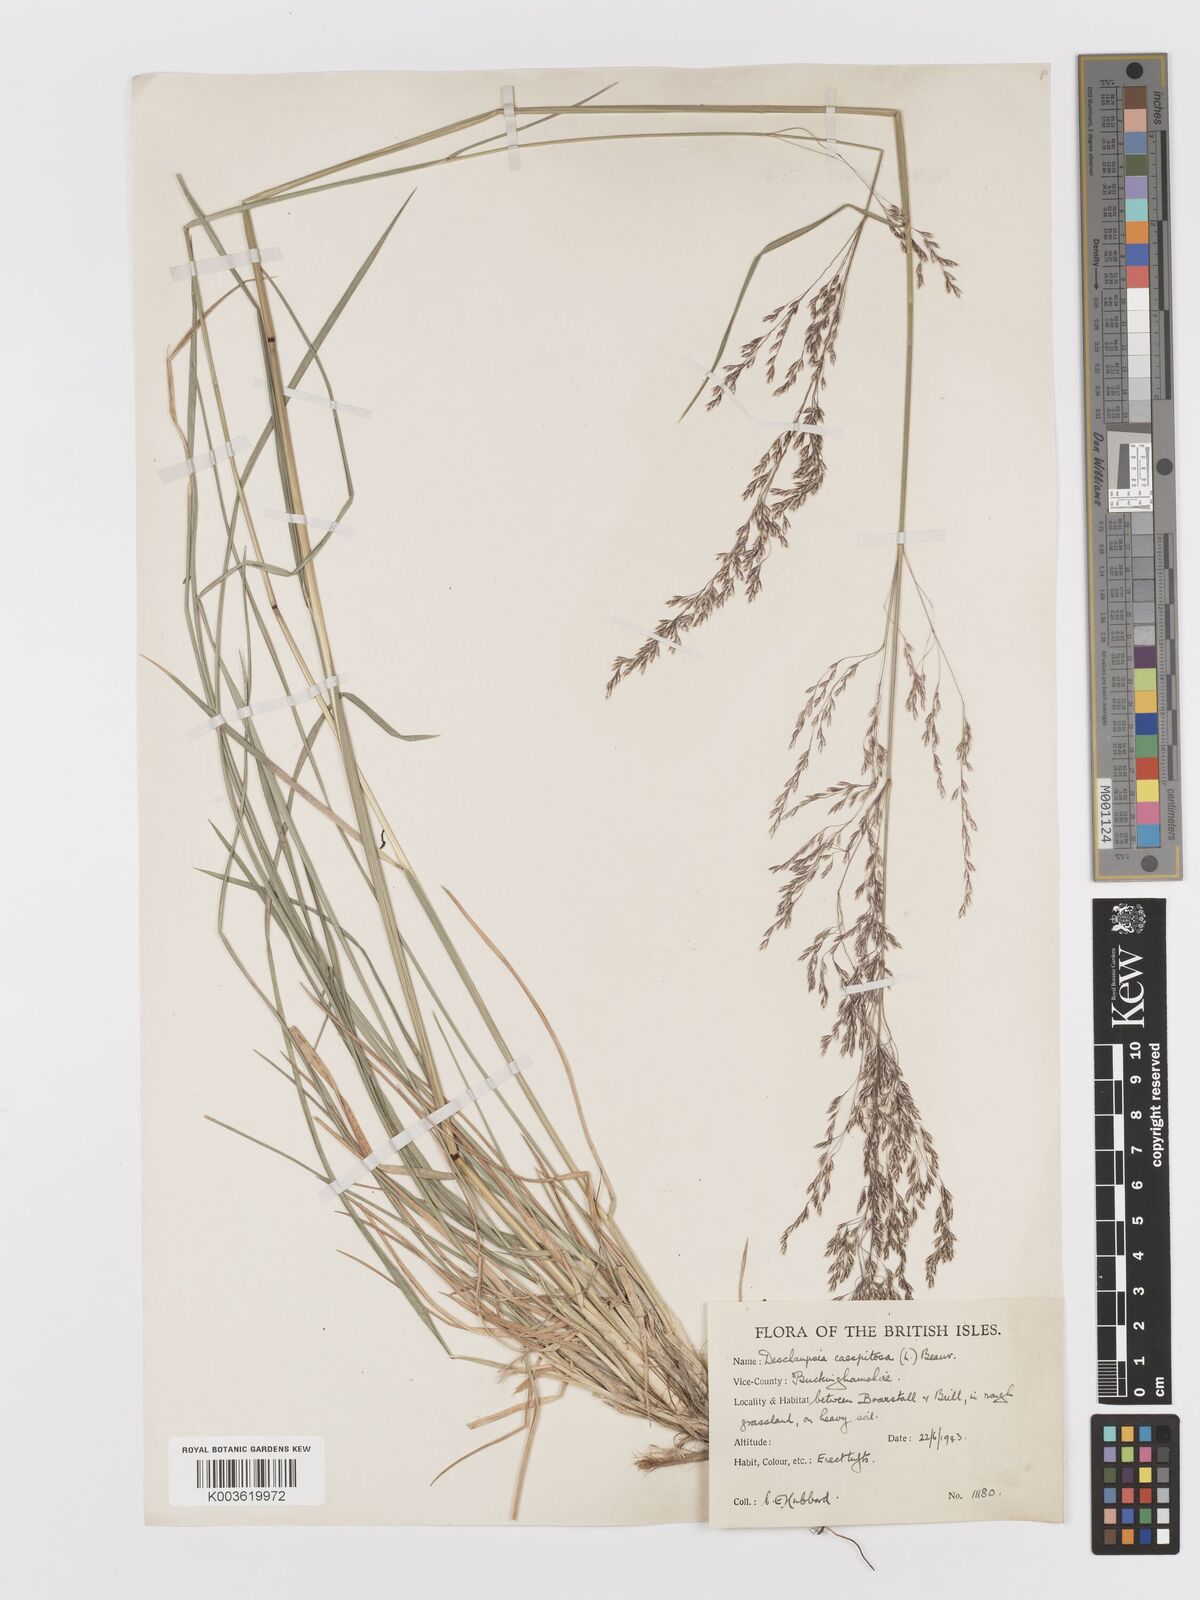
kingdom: Plantae
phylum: Tracheophyta
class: Liliopsida
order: Poales
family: Poaceae
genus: Deschampsia
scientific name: Deschampsia cespitosa
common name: Tufted hair-grass
